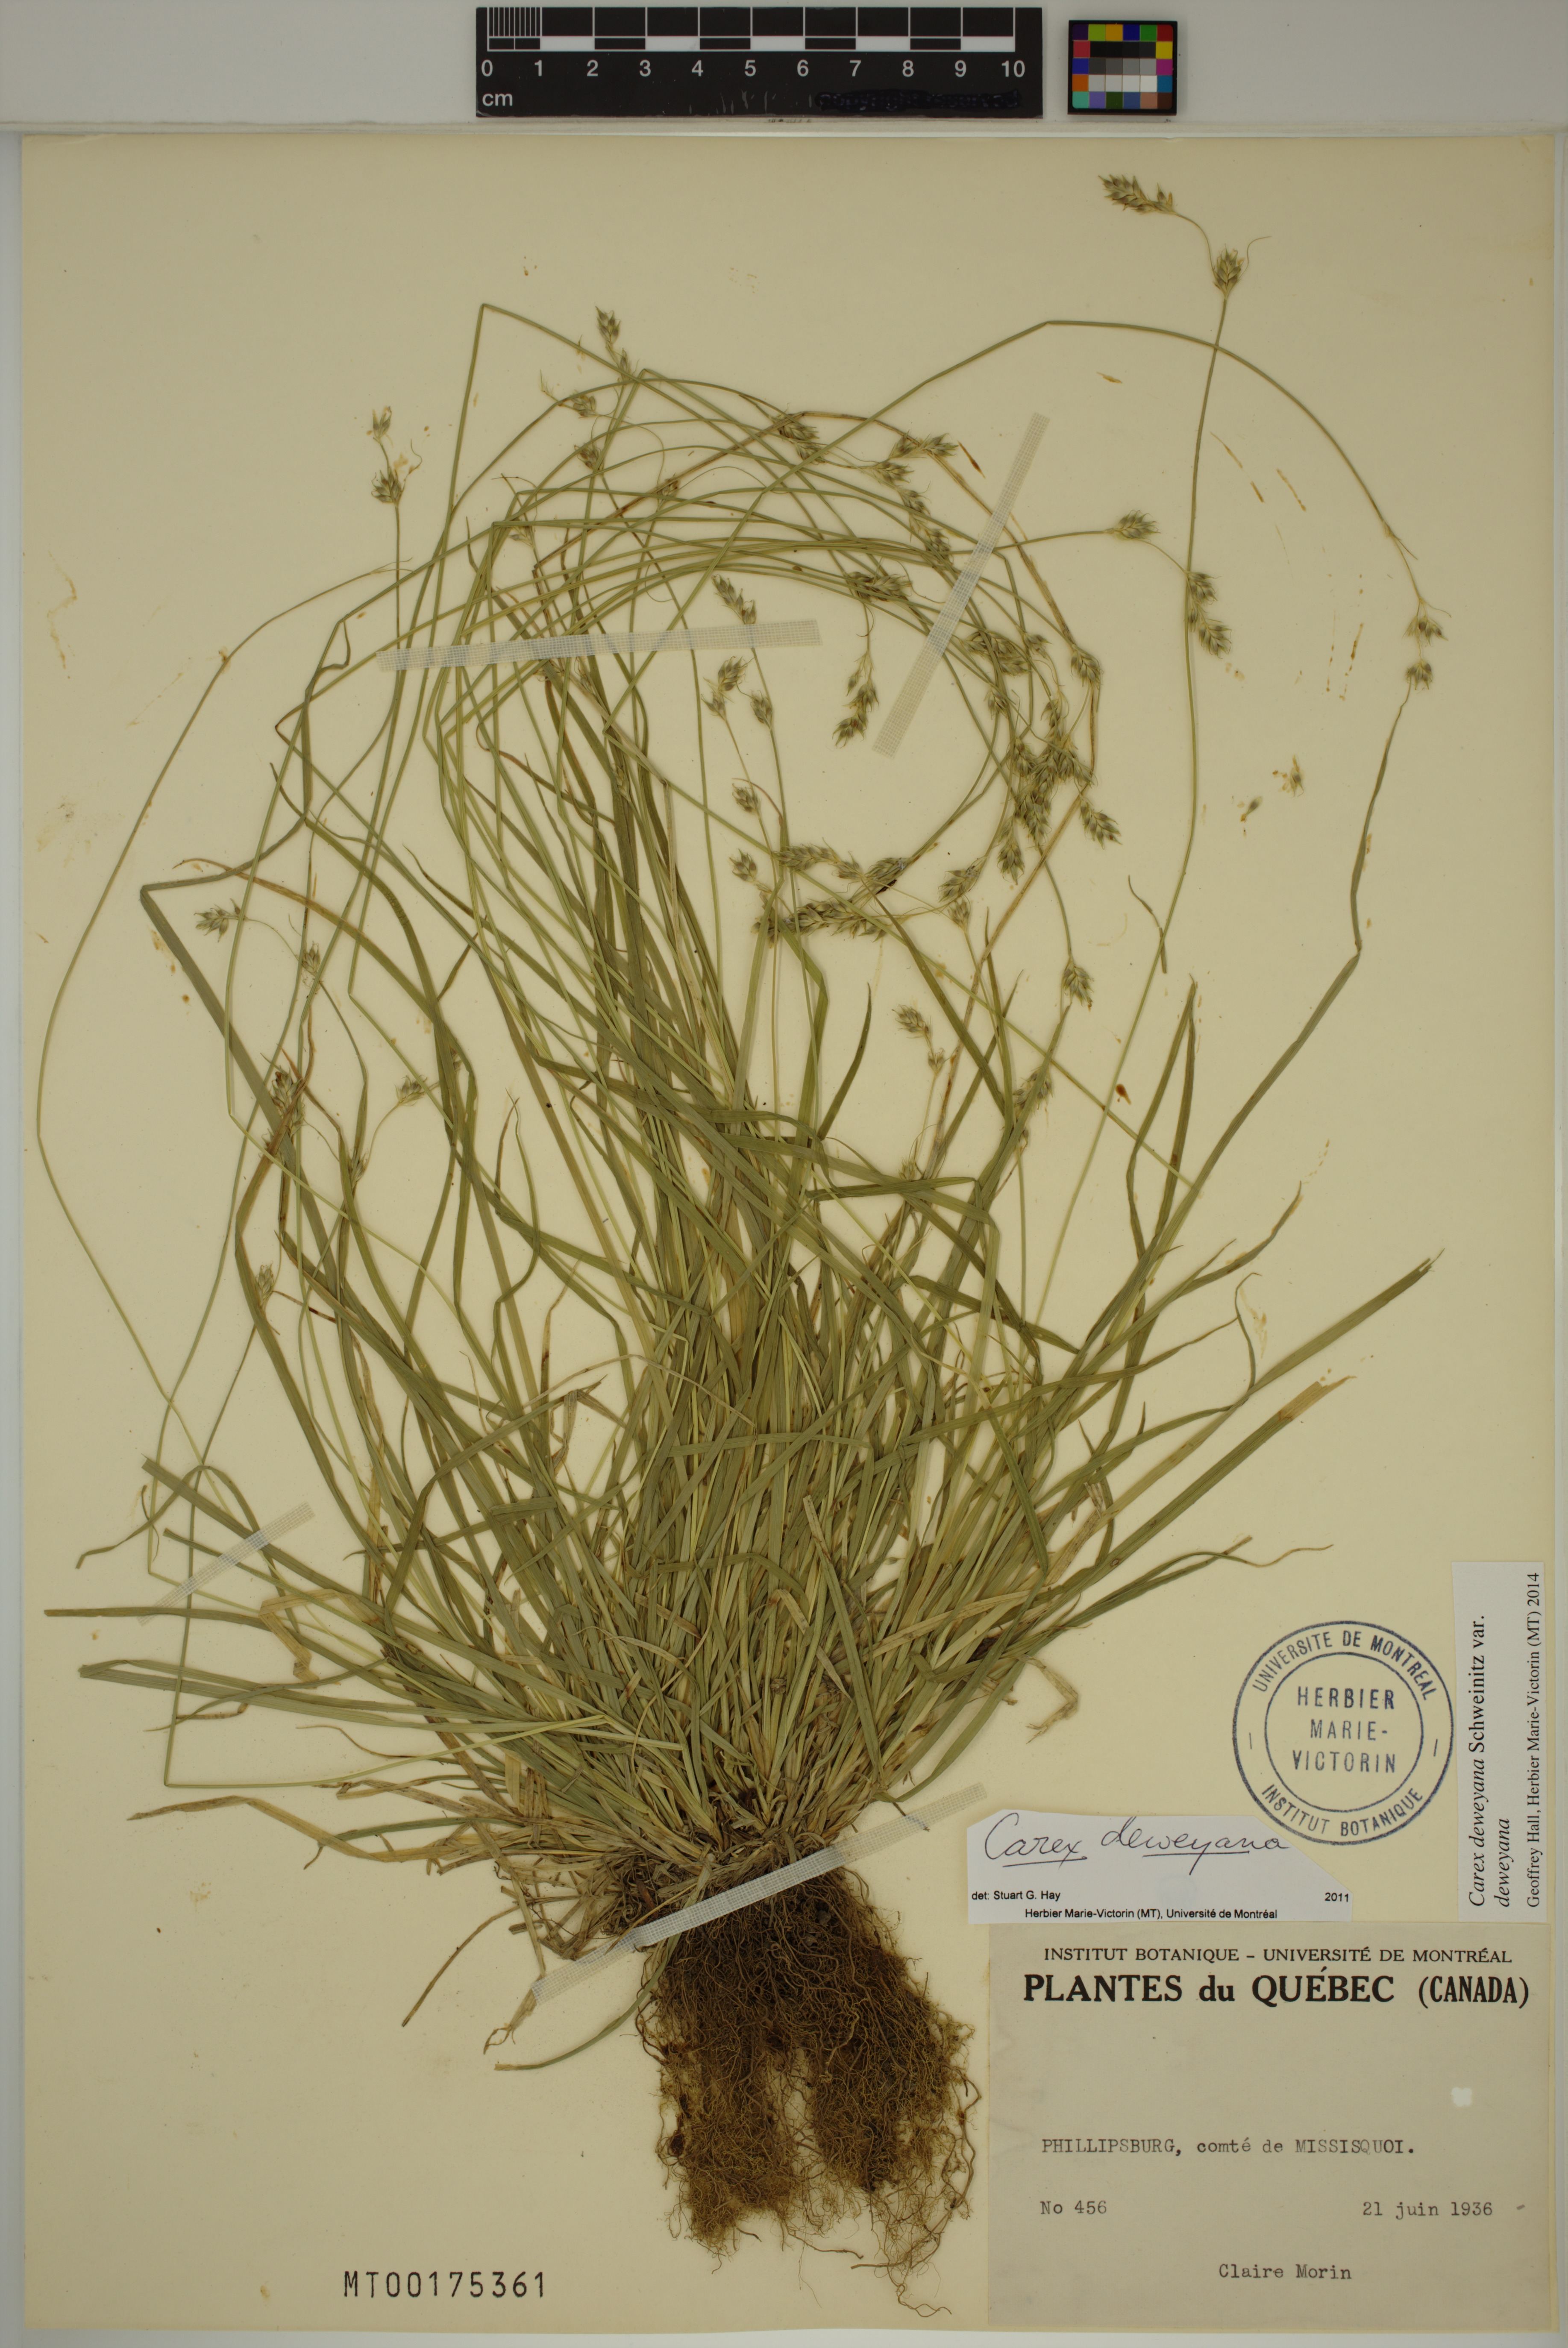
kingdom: Plantae
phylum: Tracheophyta
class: Liliopsida
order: Poales
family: Cyperaceae
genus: Carex
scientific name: Carex deweyana
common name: Dewey's sedge
